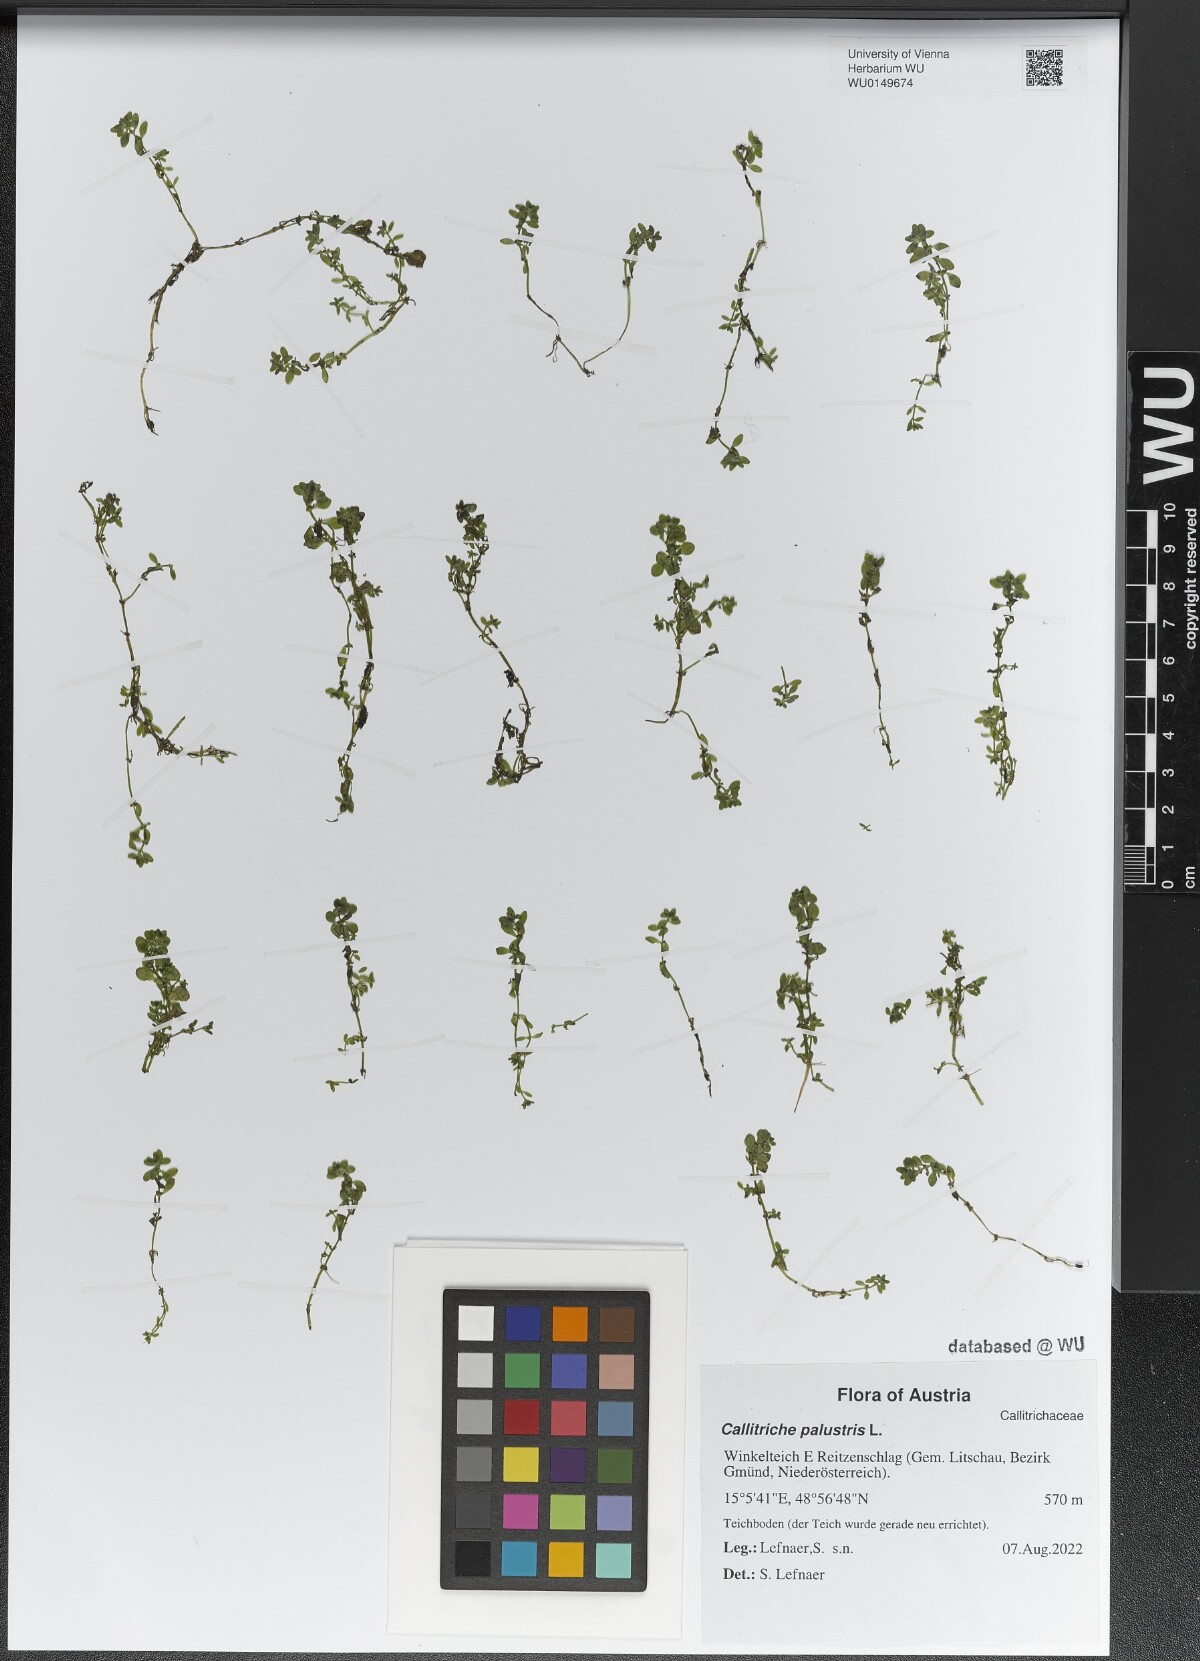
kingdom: Plantae
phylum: Tracheophyta
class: Magnoliopsida
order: Lamiales
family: Plantaginaceae
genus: Callitriche
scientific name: Callitriche palustris
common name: Spring water-starwort
